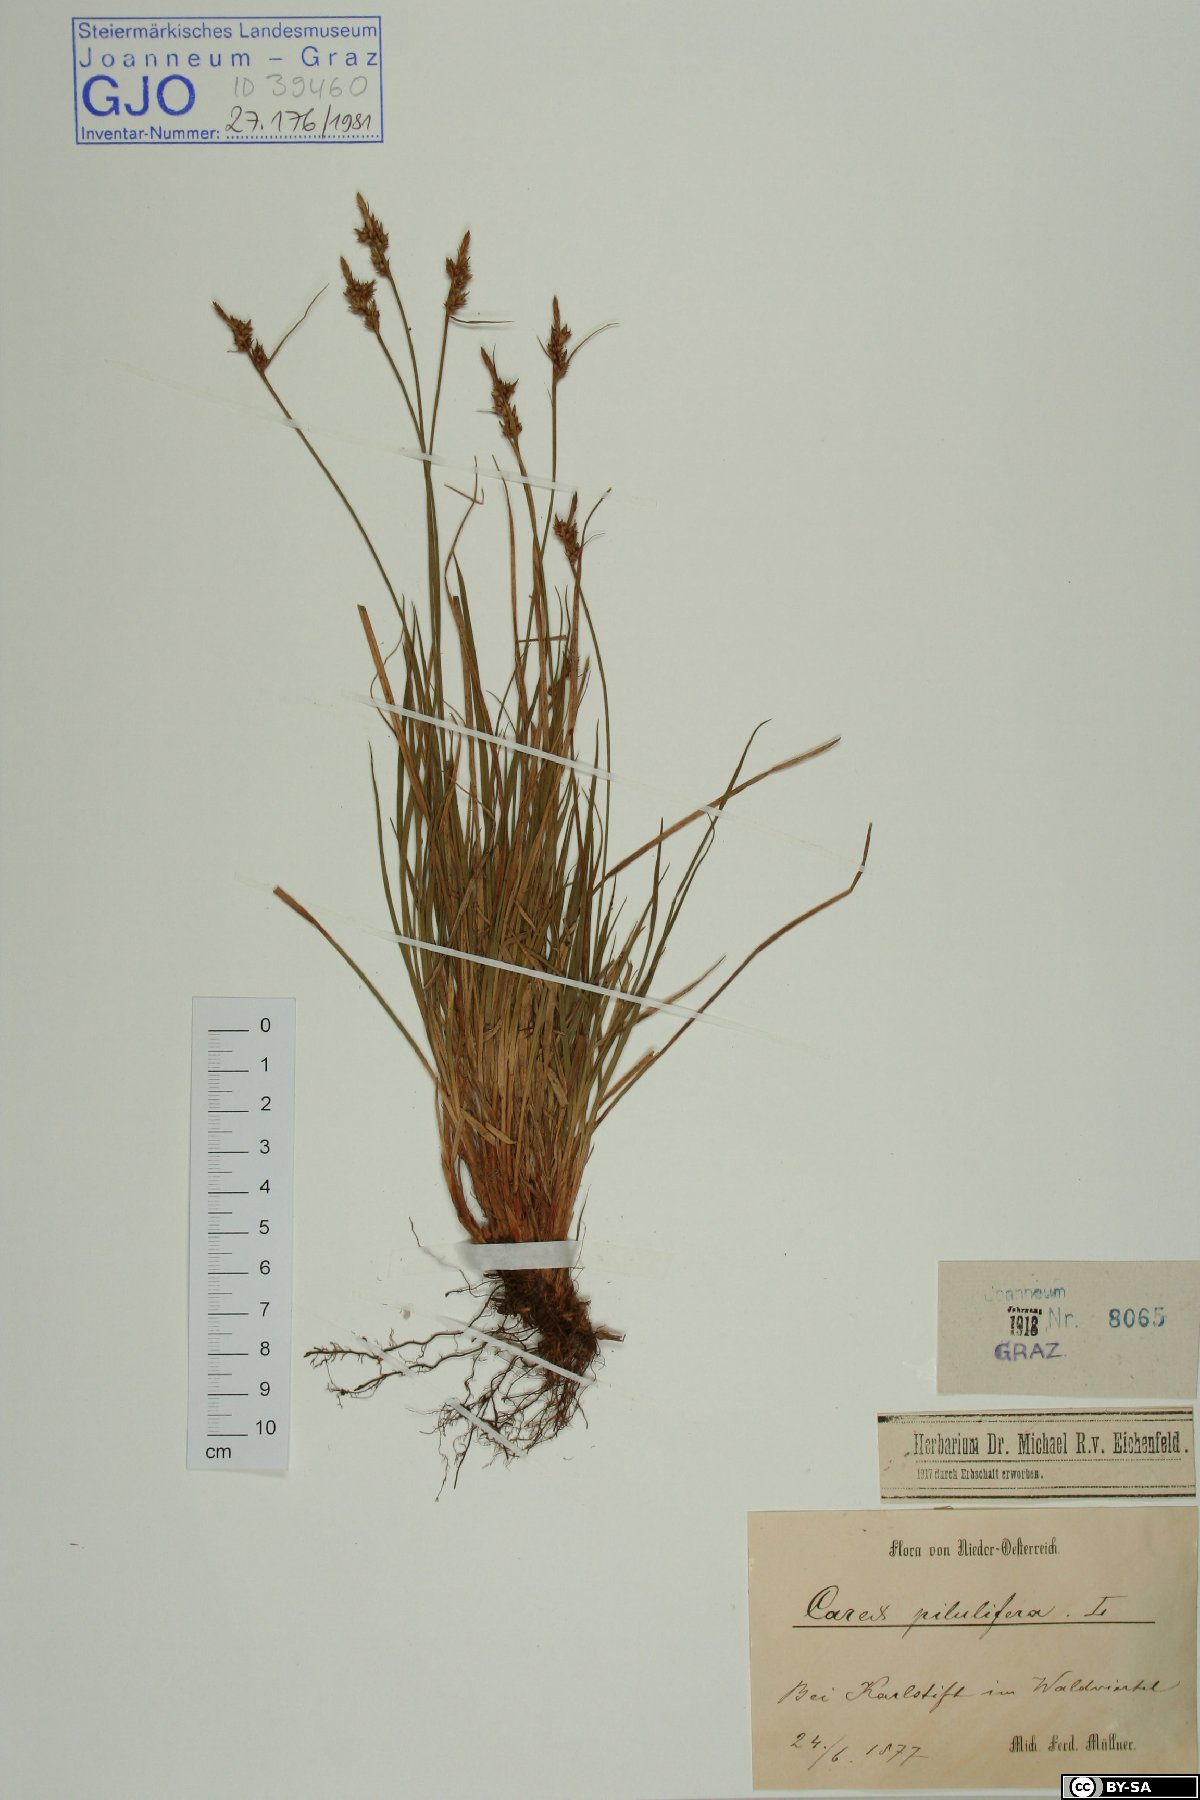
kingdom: Plantae
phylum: Tracheophyta
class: Liliopsida
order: Poales
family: Cyperaceae
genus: Carex
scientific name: Carex pilulifera
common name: Pill sedge
